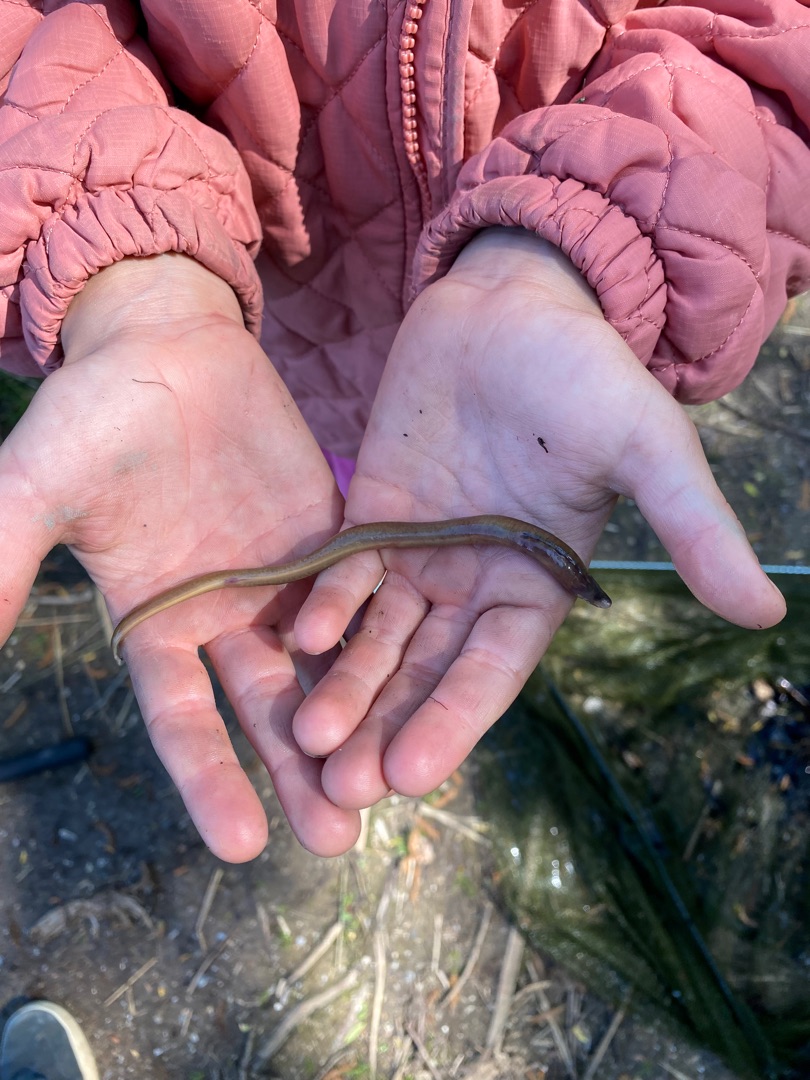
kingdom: Animalia
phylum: Chordata
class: Petromyzonti
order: Petromyzontiformes
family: Petromyzontidae
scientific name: Petromyzontidae
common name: Lampretfamilien
